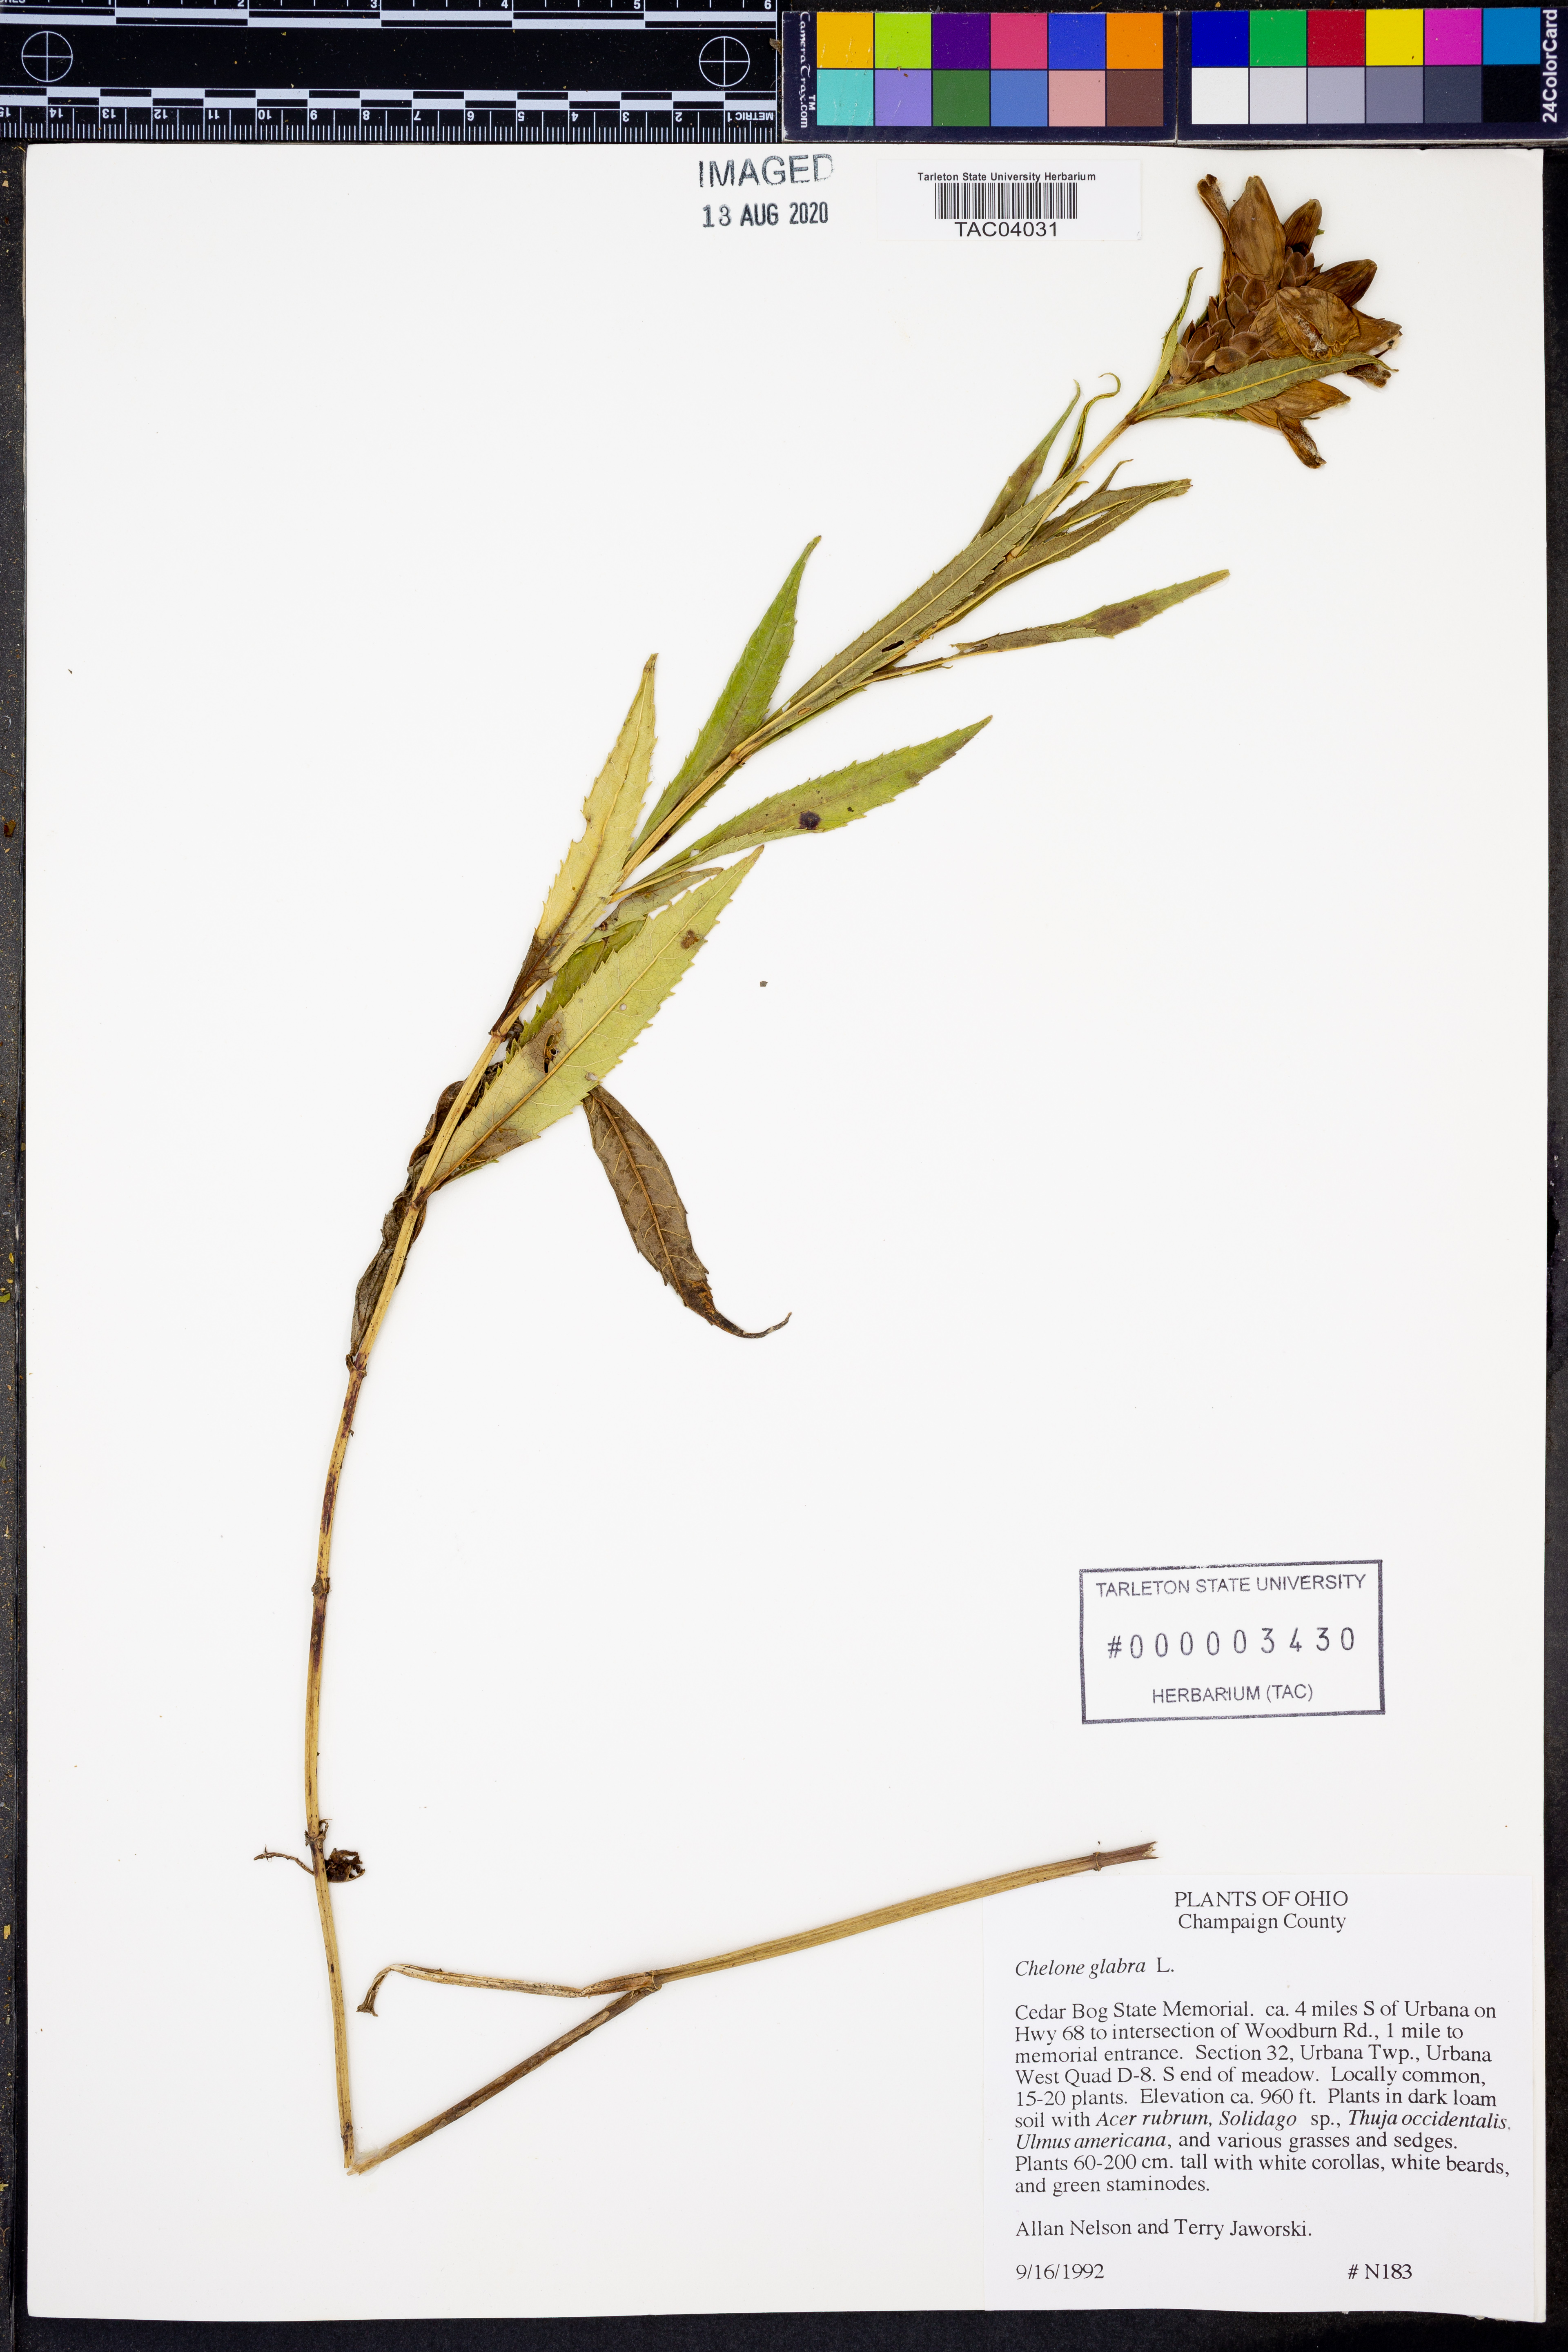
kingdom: Plantae
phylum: Tracheophyta
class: Magnoliopsida
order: Lamiales
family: Plantaginaceae
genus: Chelone
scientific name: Chelone glabra
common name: Snakehead
